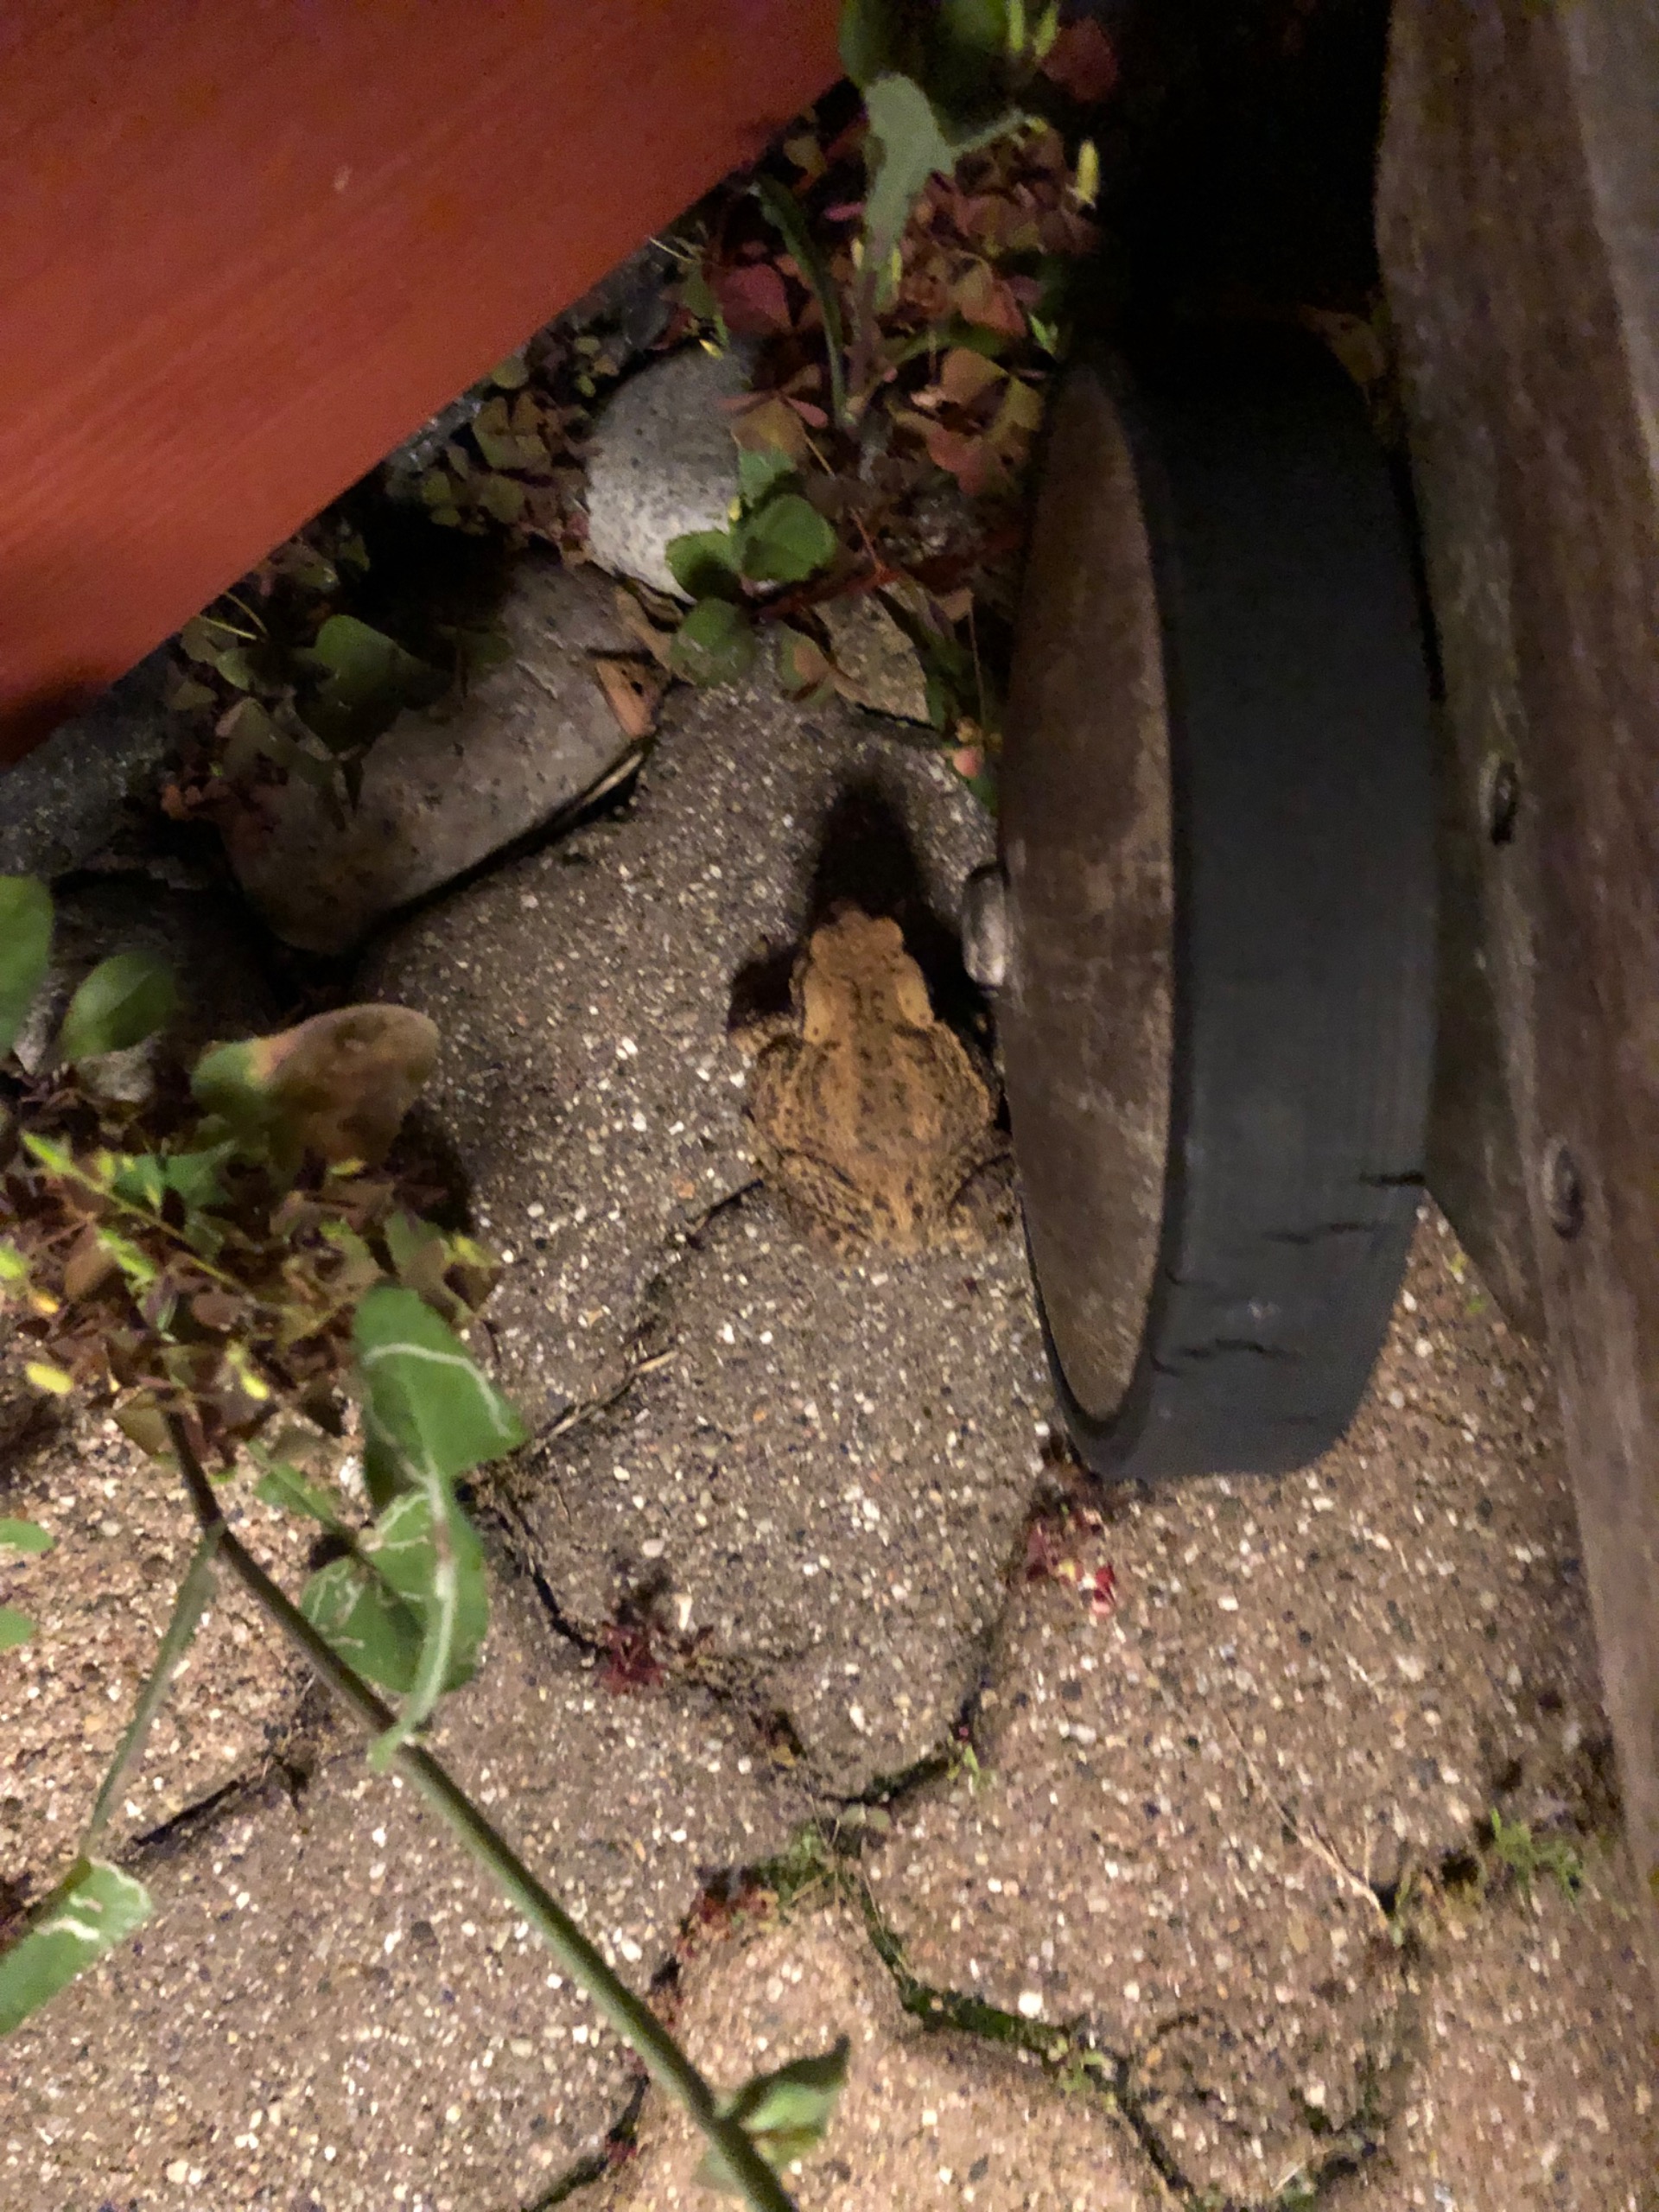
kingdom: Animalia
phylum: Chordata
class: Amphibia
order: Anura
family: Bufonidae
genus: Bufo
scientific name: Bufo bufo
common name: Skrubtudse
